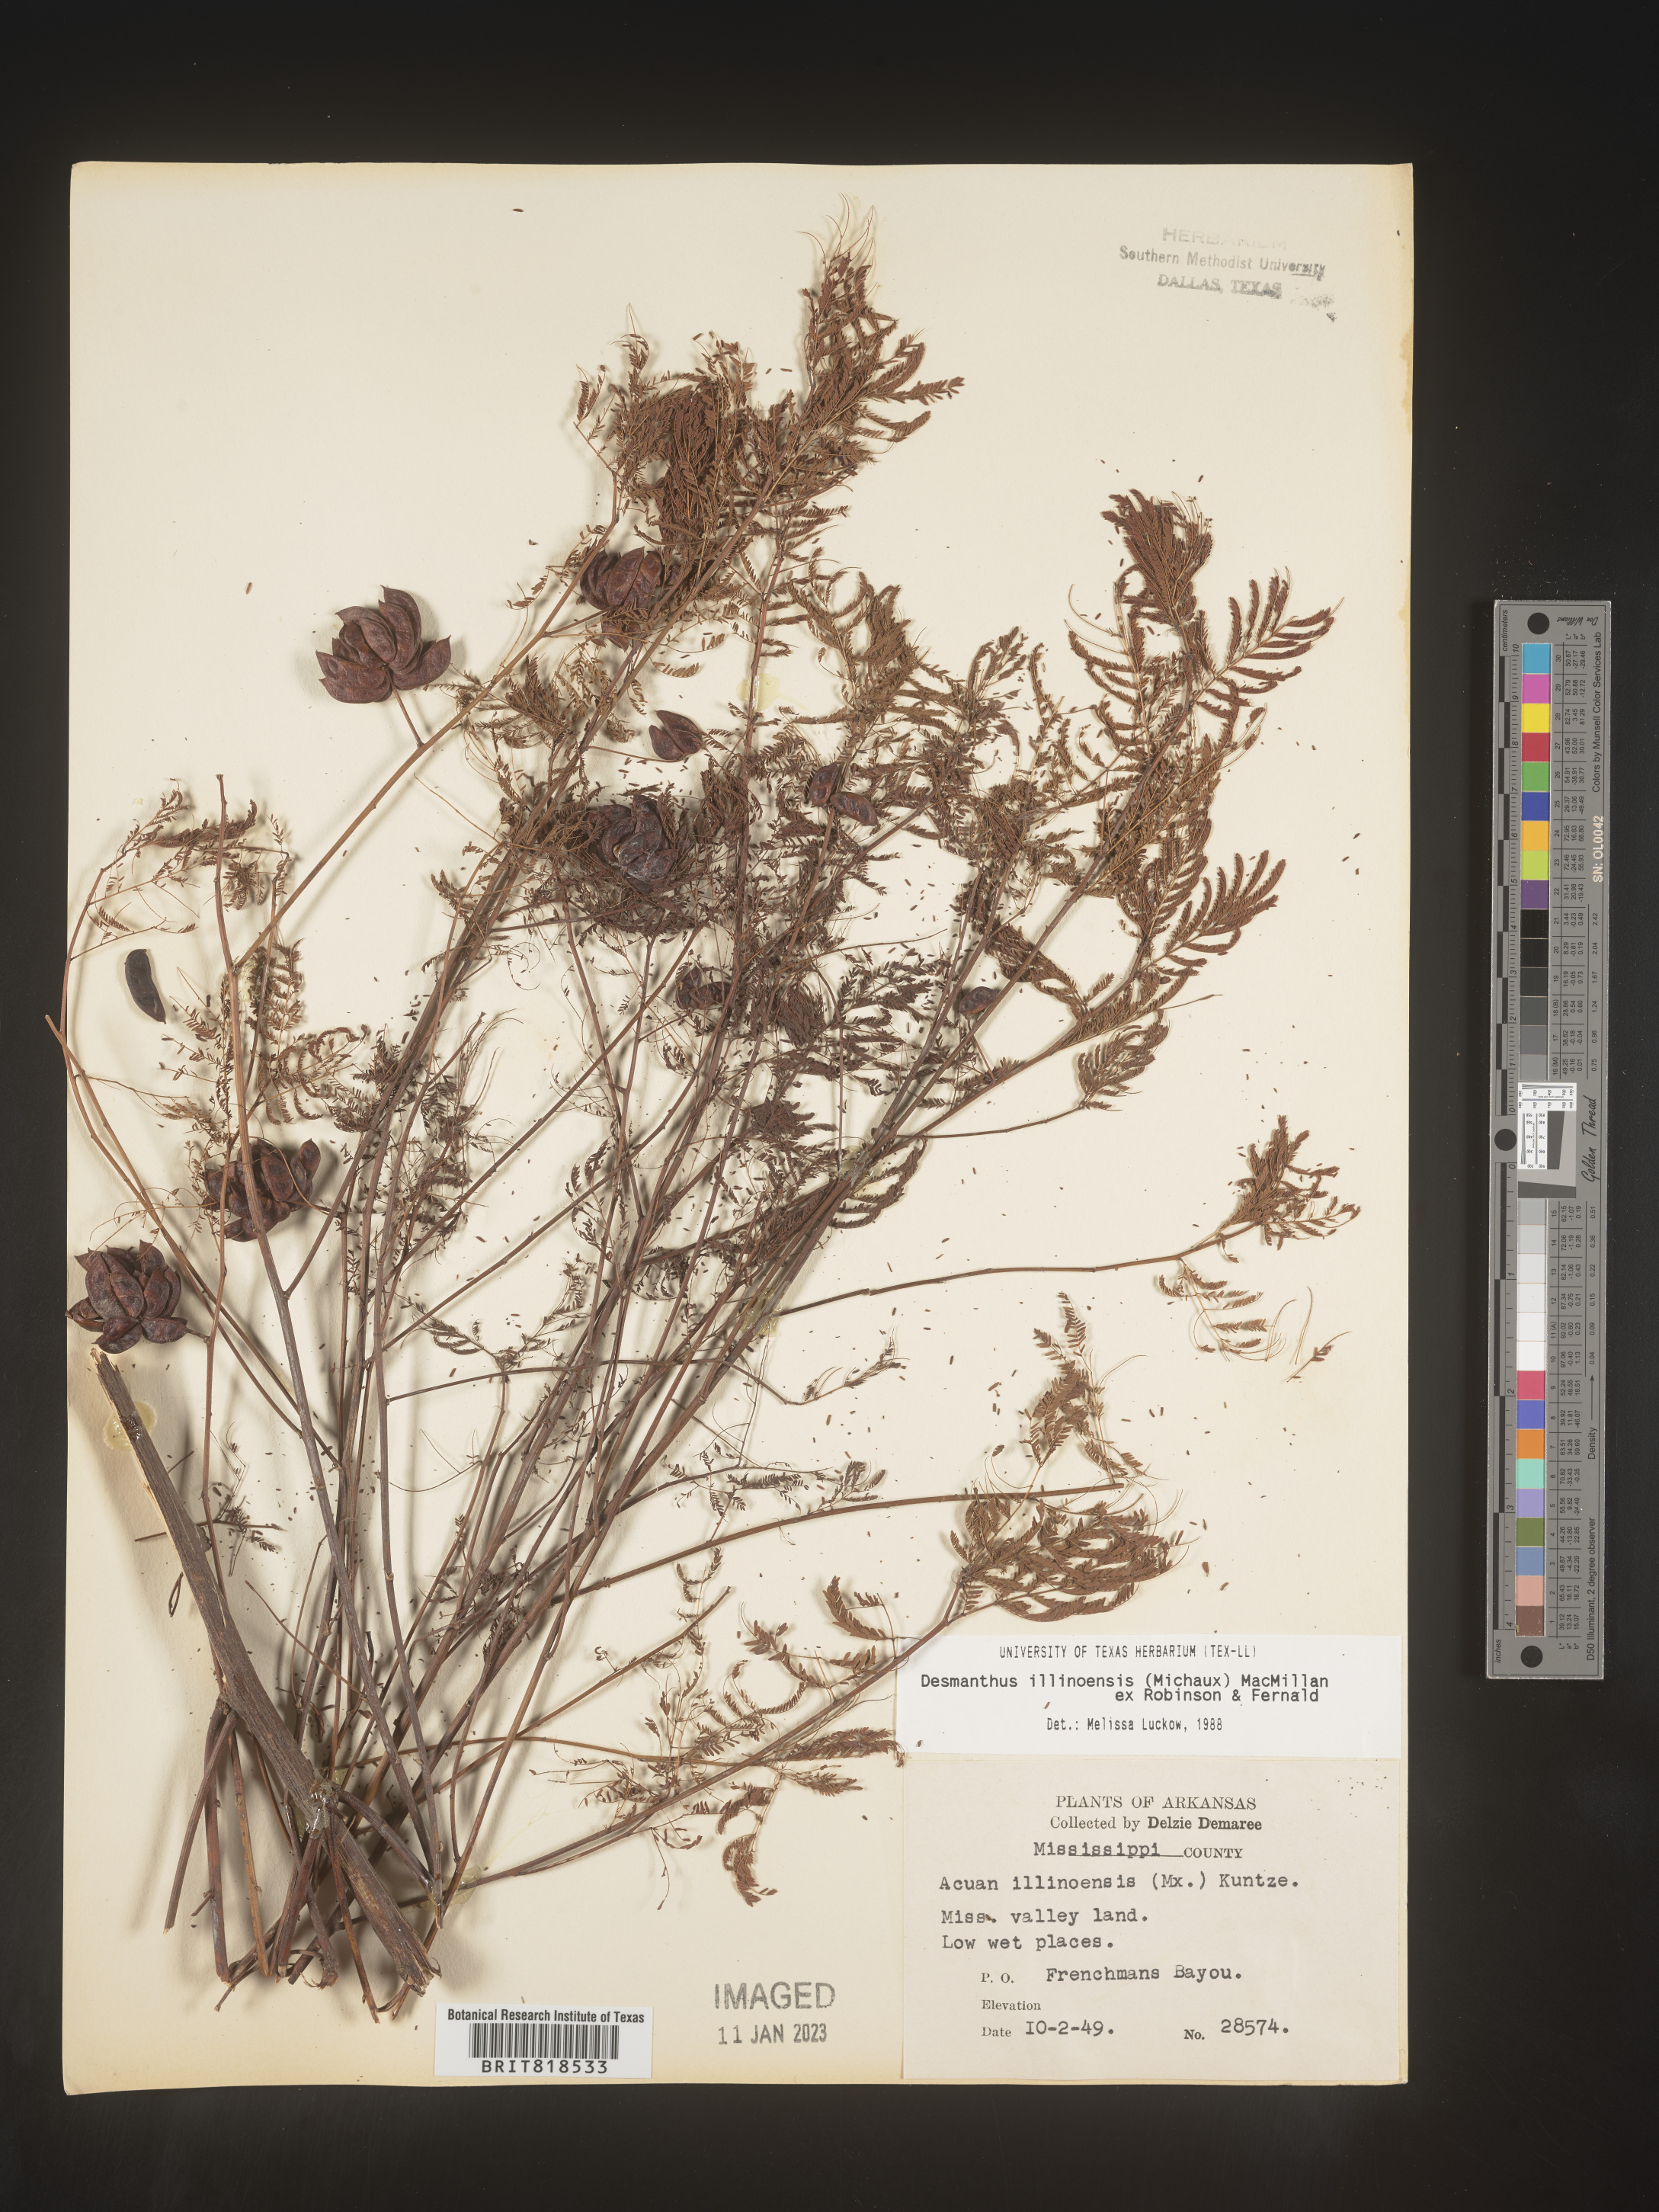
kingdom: Plantae
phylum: Tracheophyta
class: Magnoliopsida
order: Fabales
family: Fabaceae
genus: Desmanthus
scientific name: Desmanthus illinoensis
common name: Illinois bundle-flower
